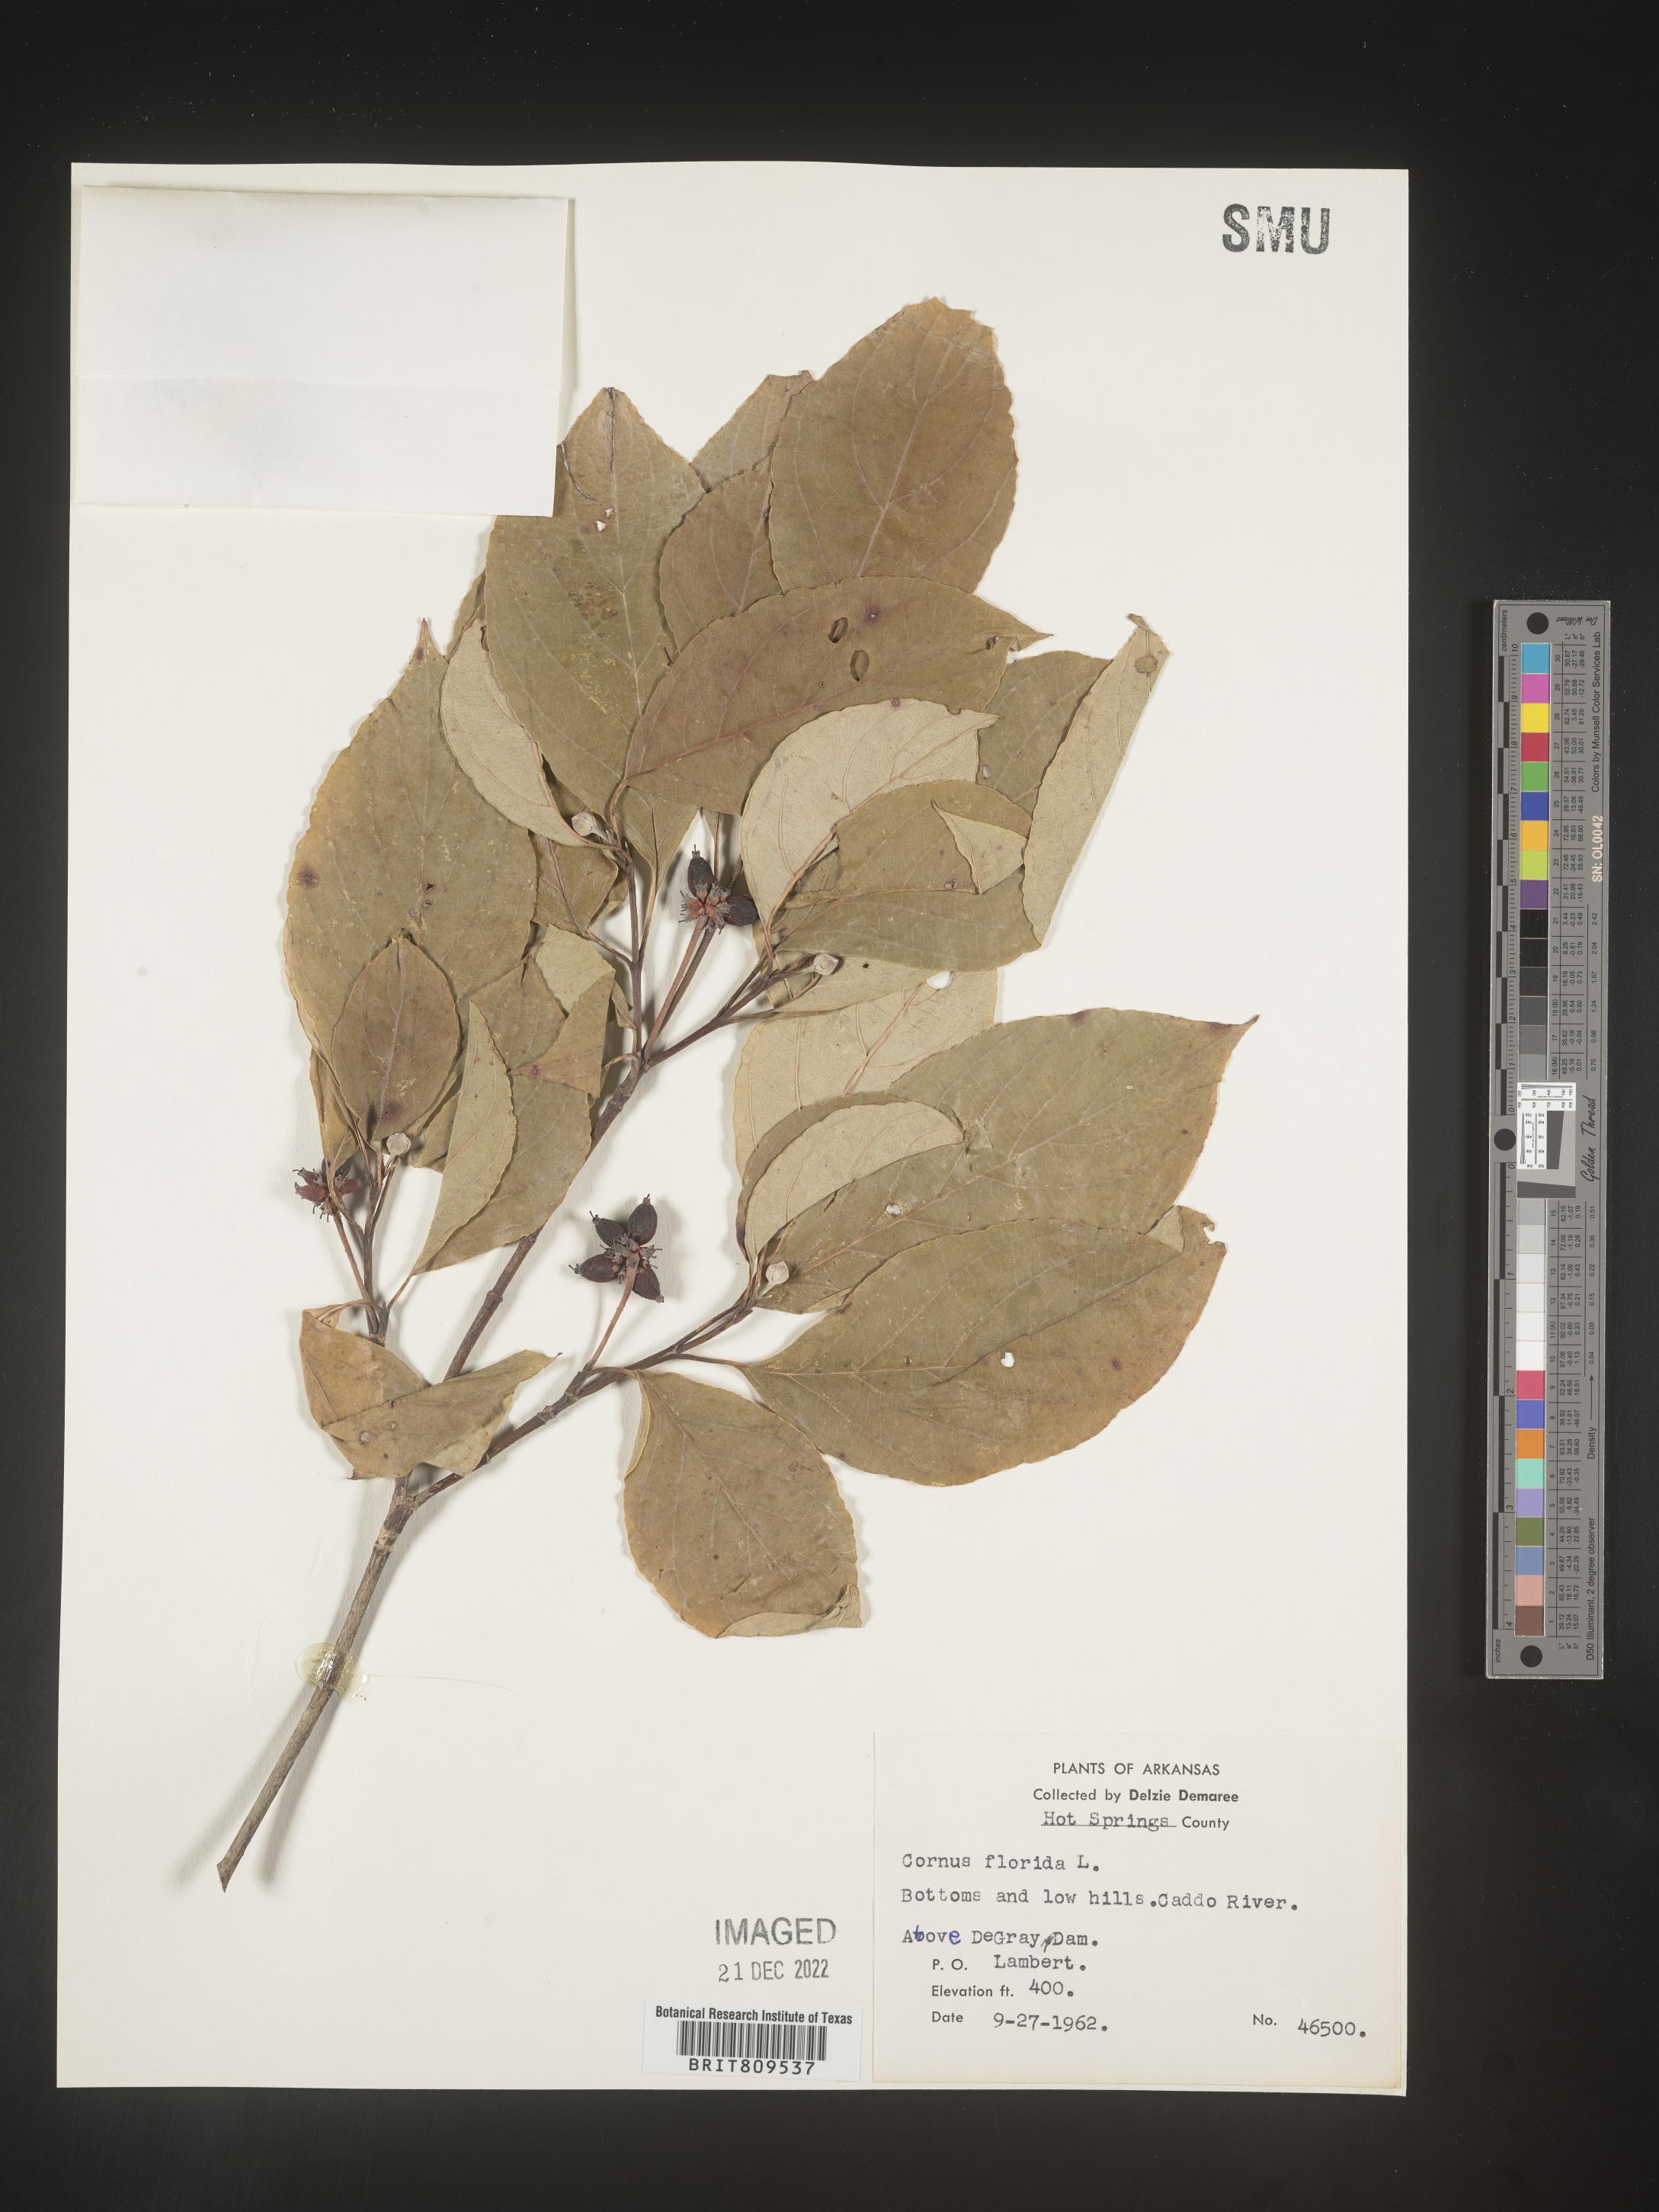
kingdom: Plantae
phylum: Tracheophyta
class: Magnoliopsida
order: Cornales
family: Cornaceae
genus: Cornus
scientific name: Cornus florida
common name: Flowering dogwood
